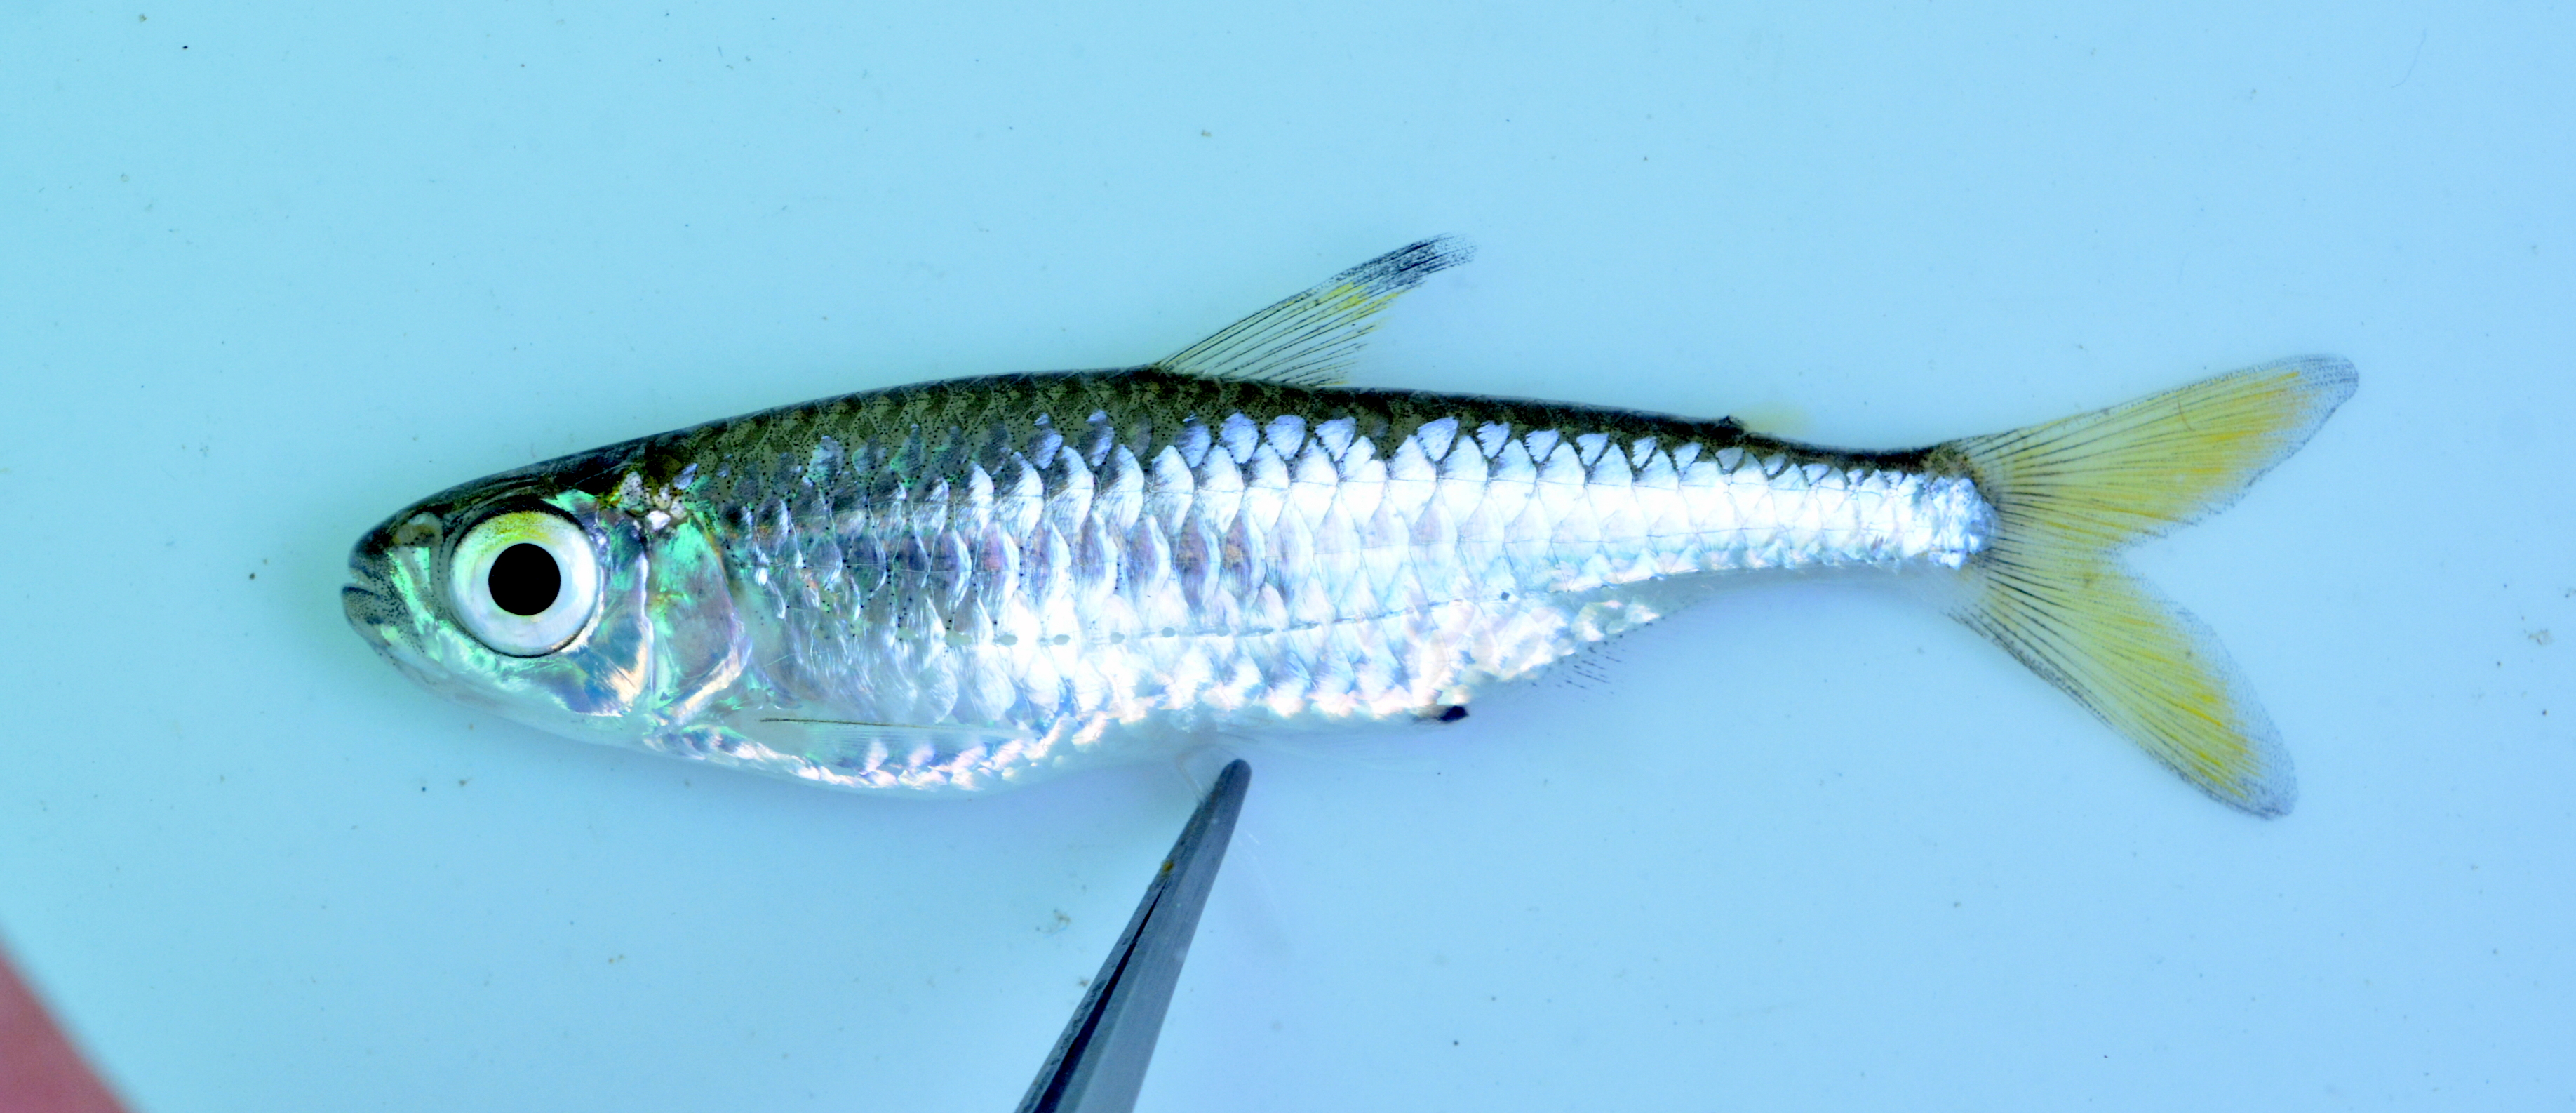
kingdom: Animalia
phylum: Chordata
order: Characiformes
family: Alestidae
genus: Micralestes
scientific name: Micralestes acutidens
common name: Silver robber
